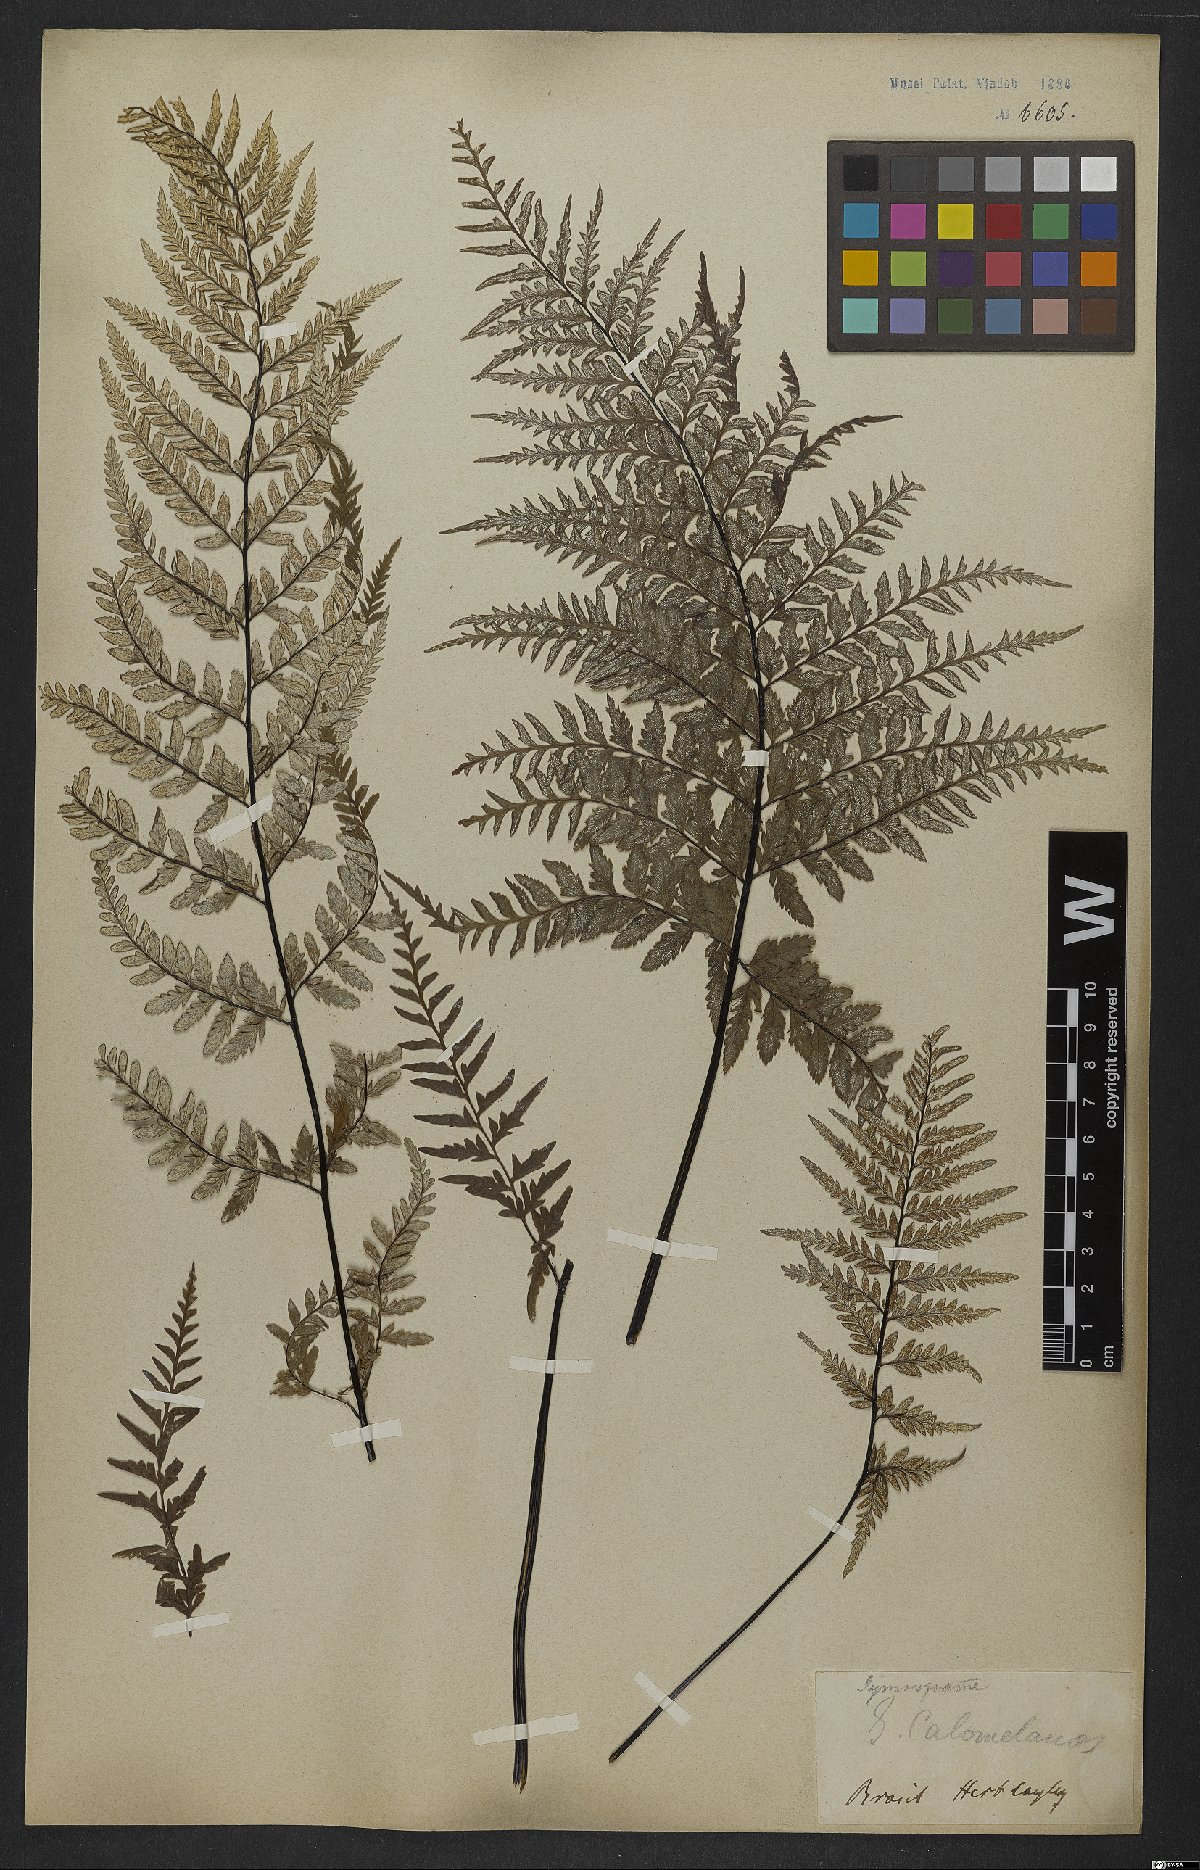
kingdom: Plantae
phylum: Tracheophyta
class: Polypodiopsida
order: Polypodiales
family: Pteridaceae
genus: Pityrogramma
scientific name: Pityrogramma calomelanos
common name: Dixie silverback fern
